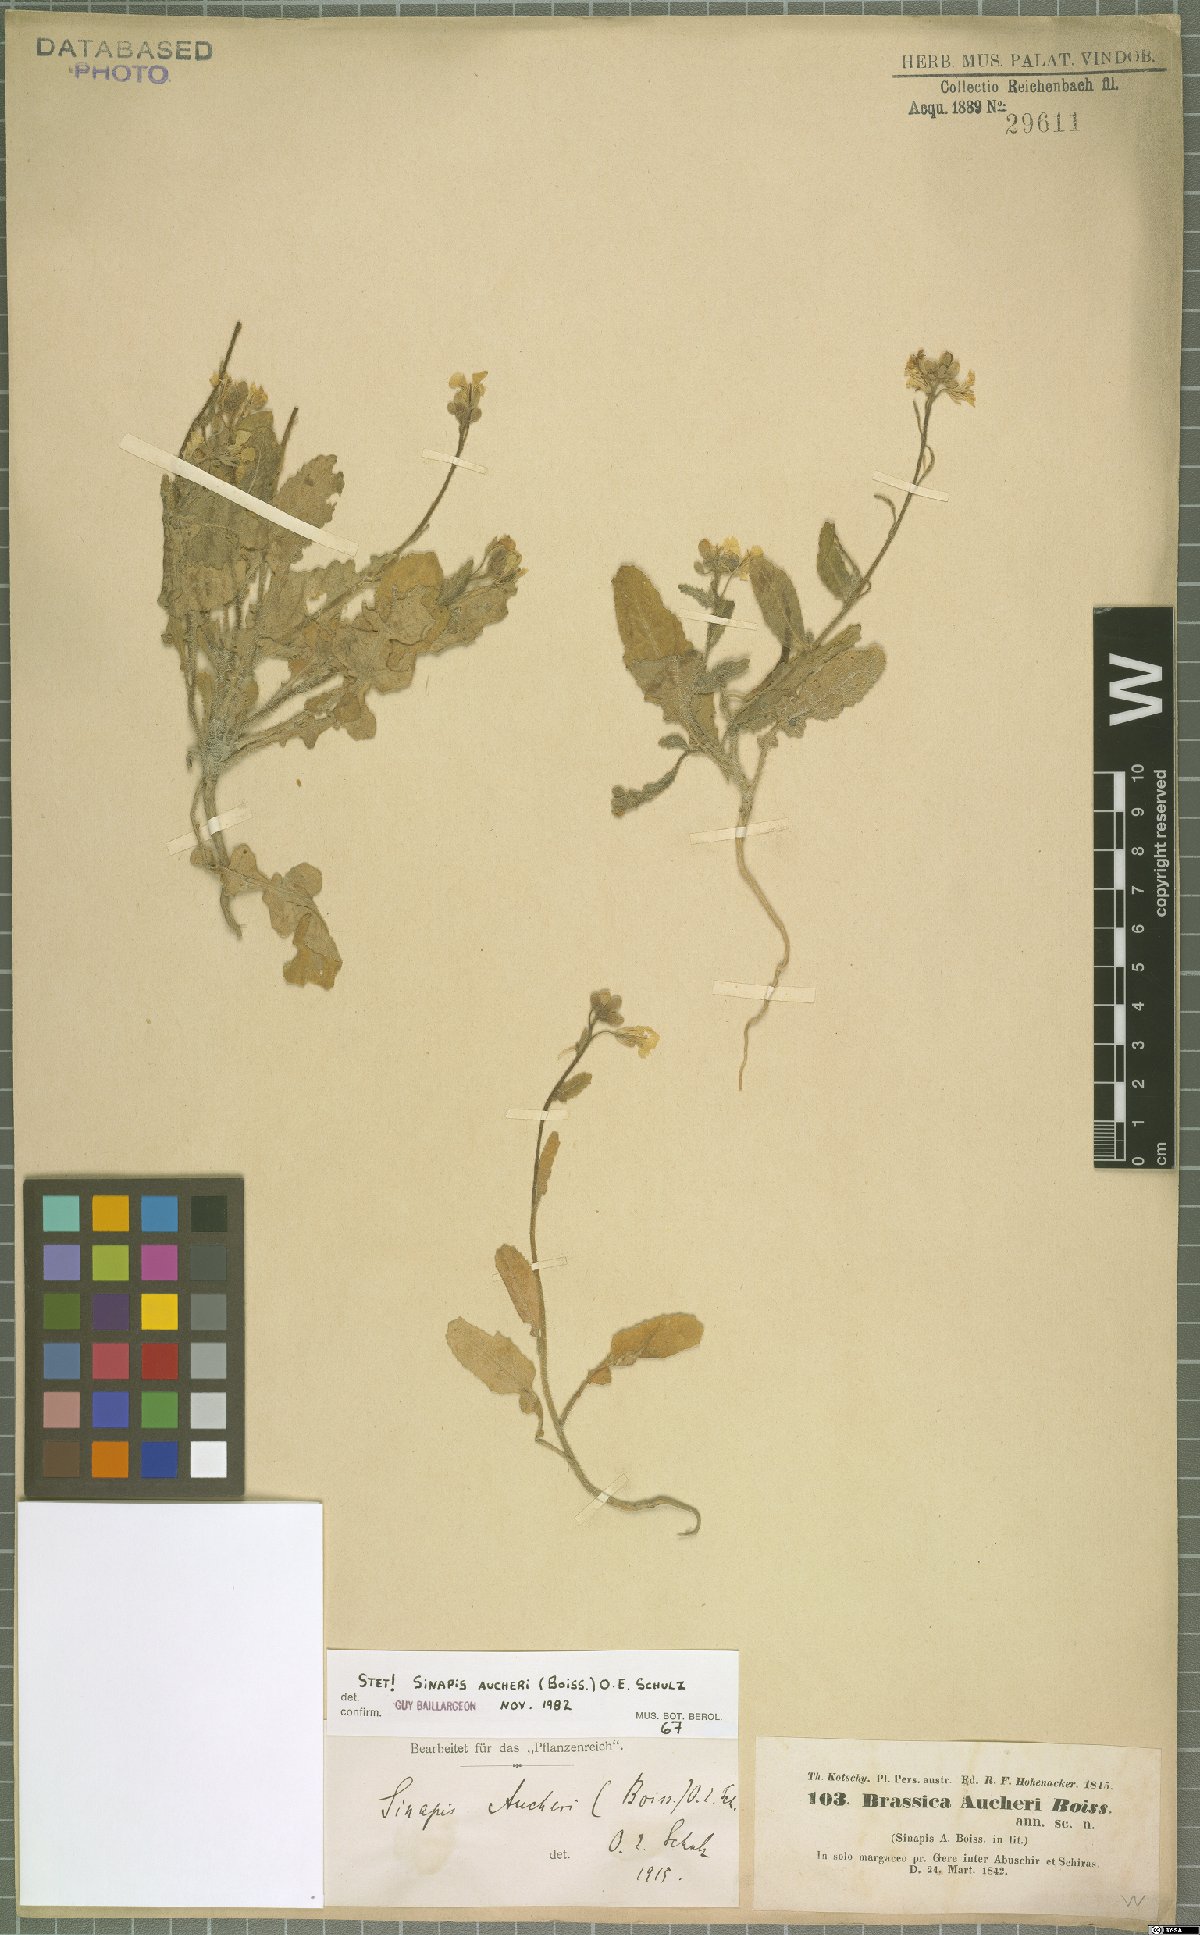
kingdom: Plantae
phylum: Tracheophyta
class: Magnoliopsida
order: Brassicales
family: Brassicaceae
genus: Brassica
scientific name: Brassica aucheri
